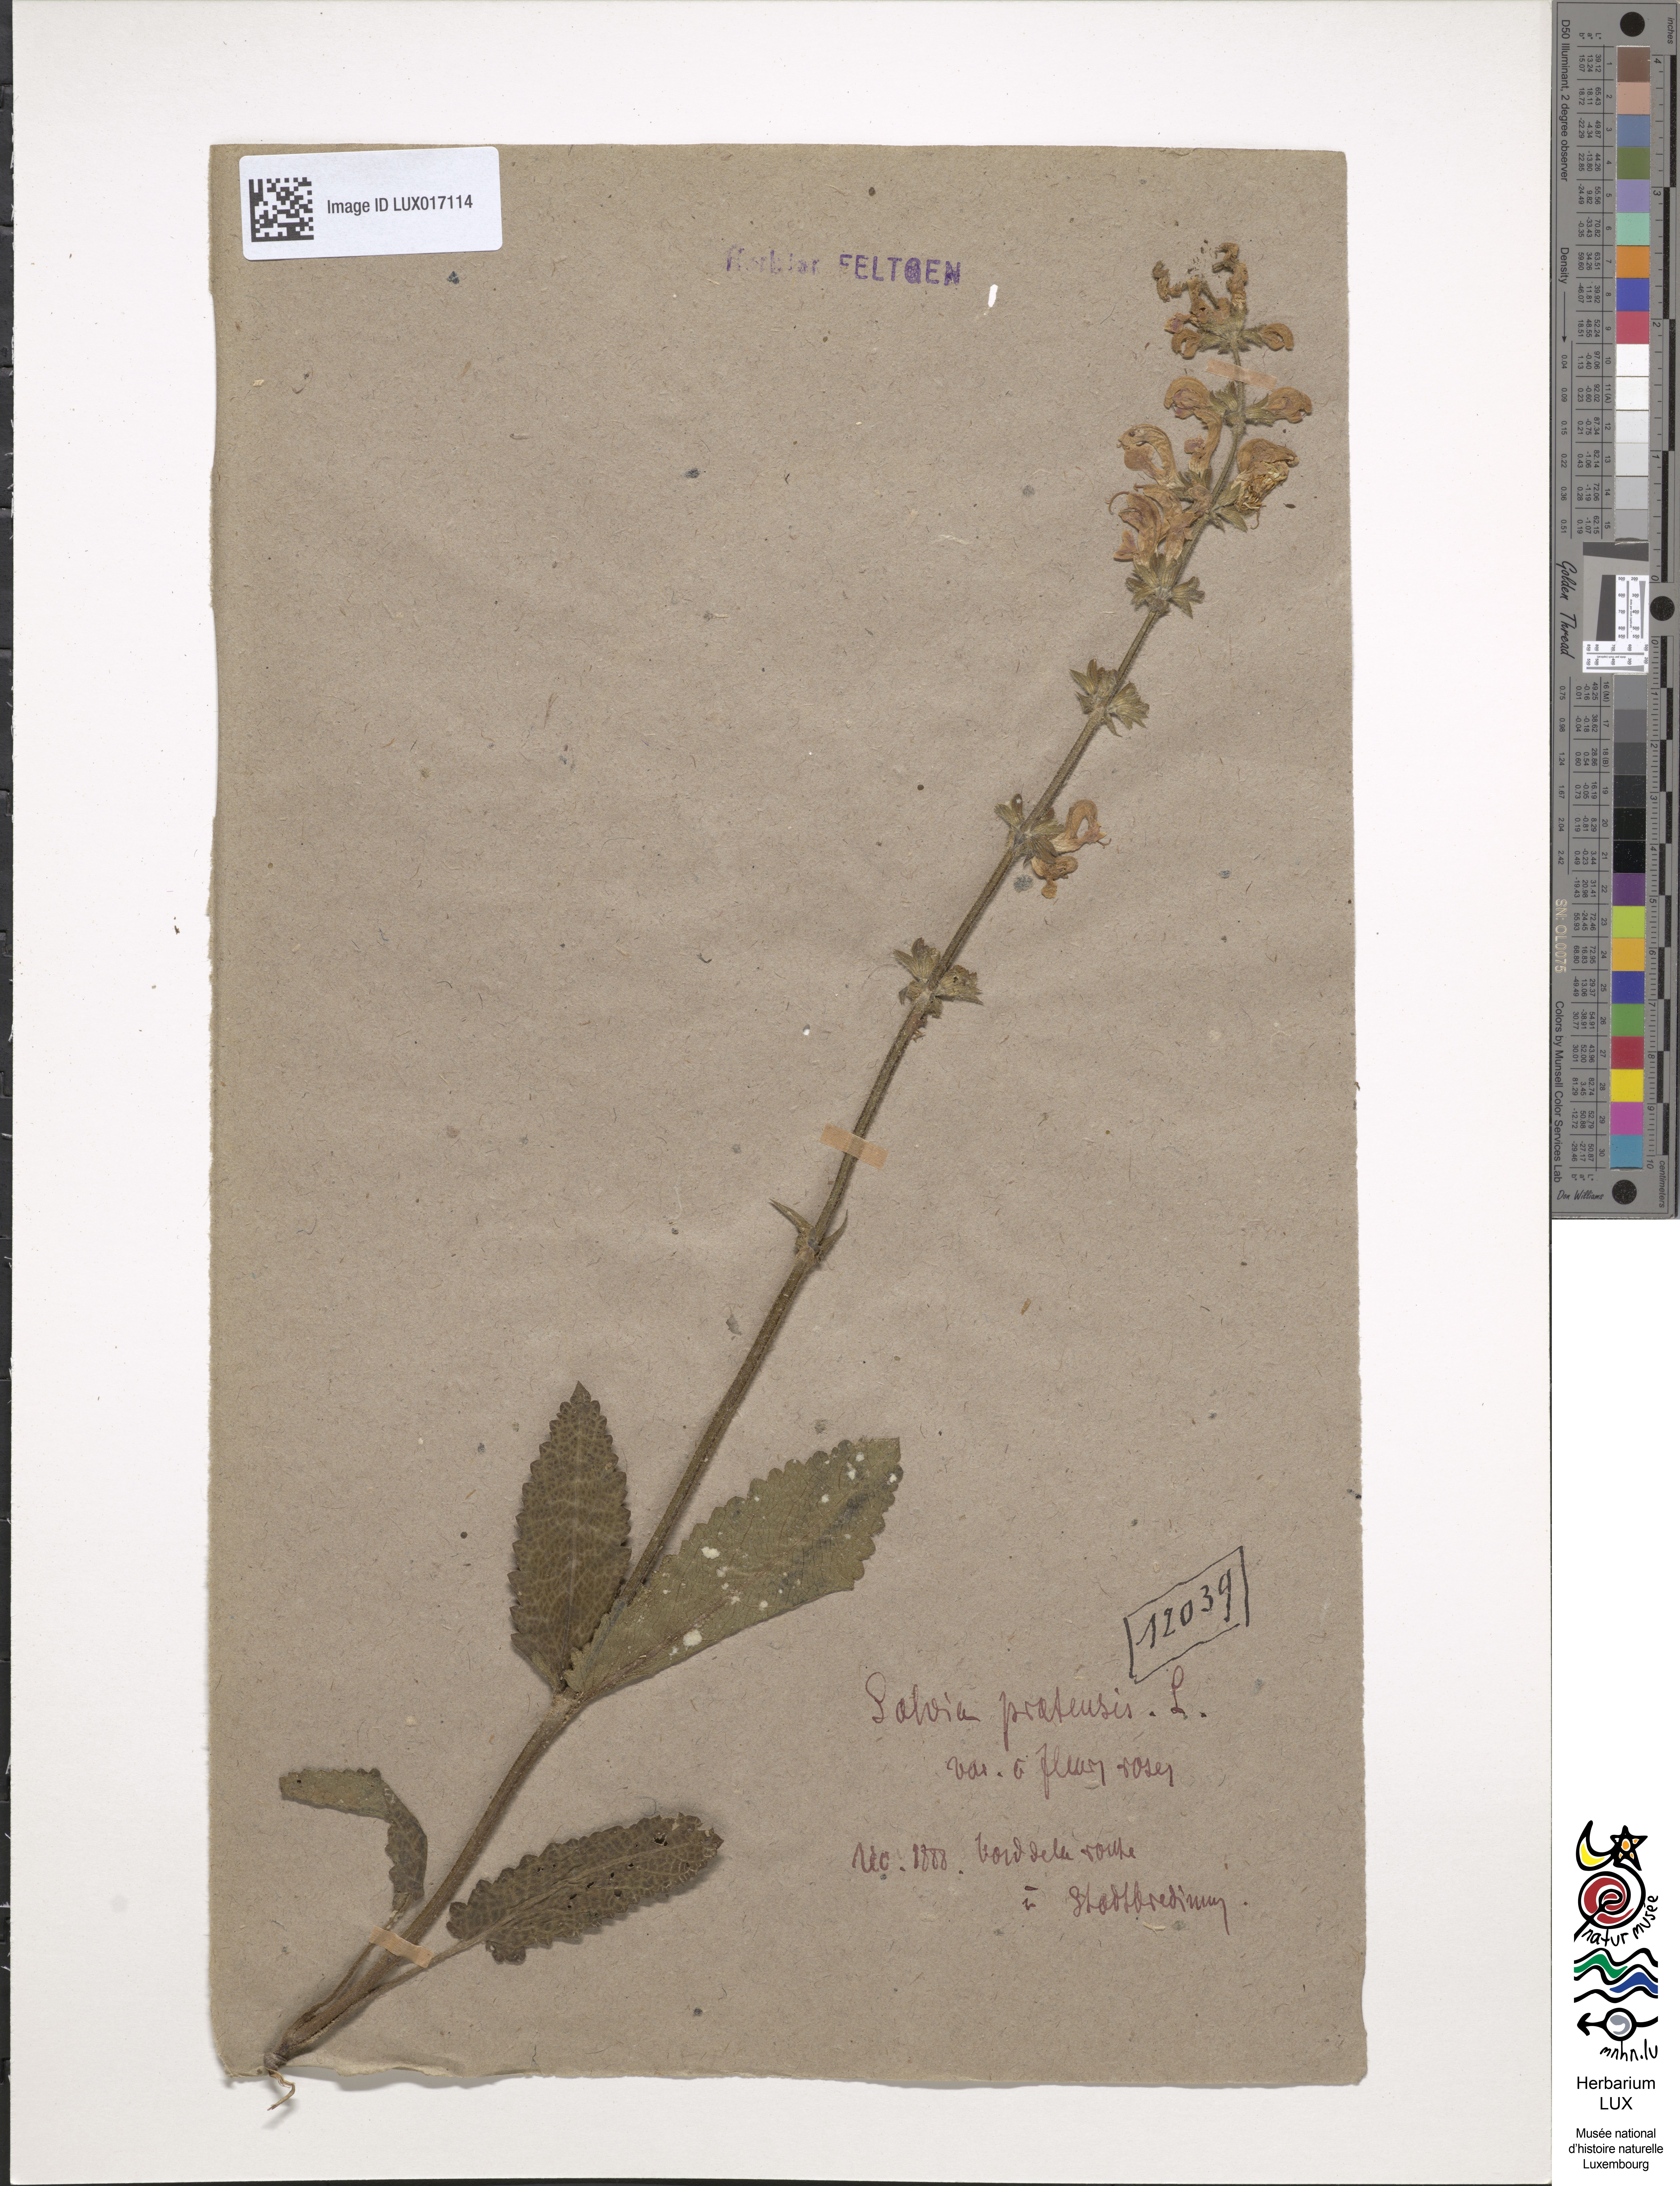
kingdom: Plantae
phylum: Tracheophyta
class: Magnoliopsida
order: Lamiales
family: Lamiaceae
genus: Salvia
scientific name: Salvia pratensis
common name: Meadow sage
